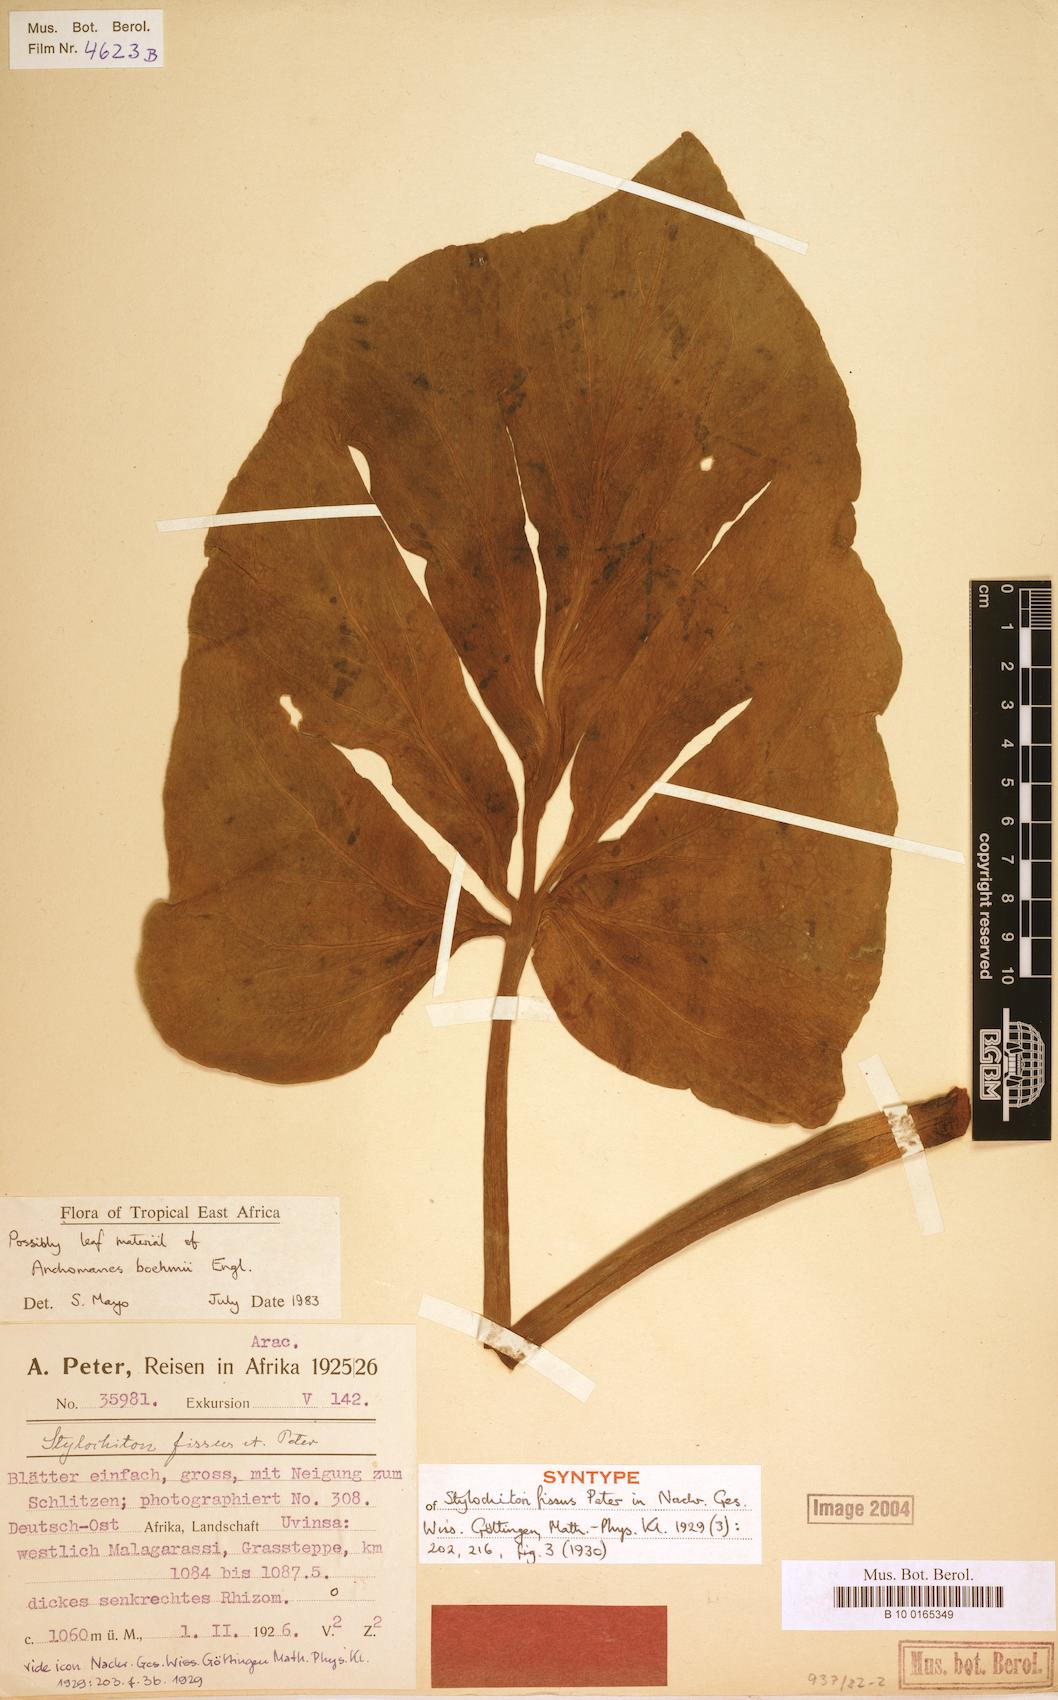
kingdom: Plantae
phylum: Tracheophyta
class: Liliopsida
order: Alismatales
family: Araceae
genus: Anchomanes
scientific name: Anchomanes boehmii
